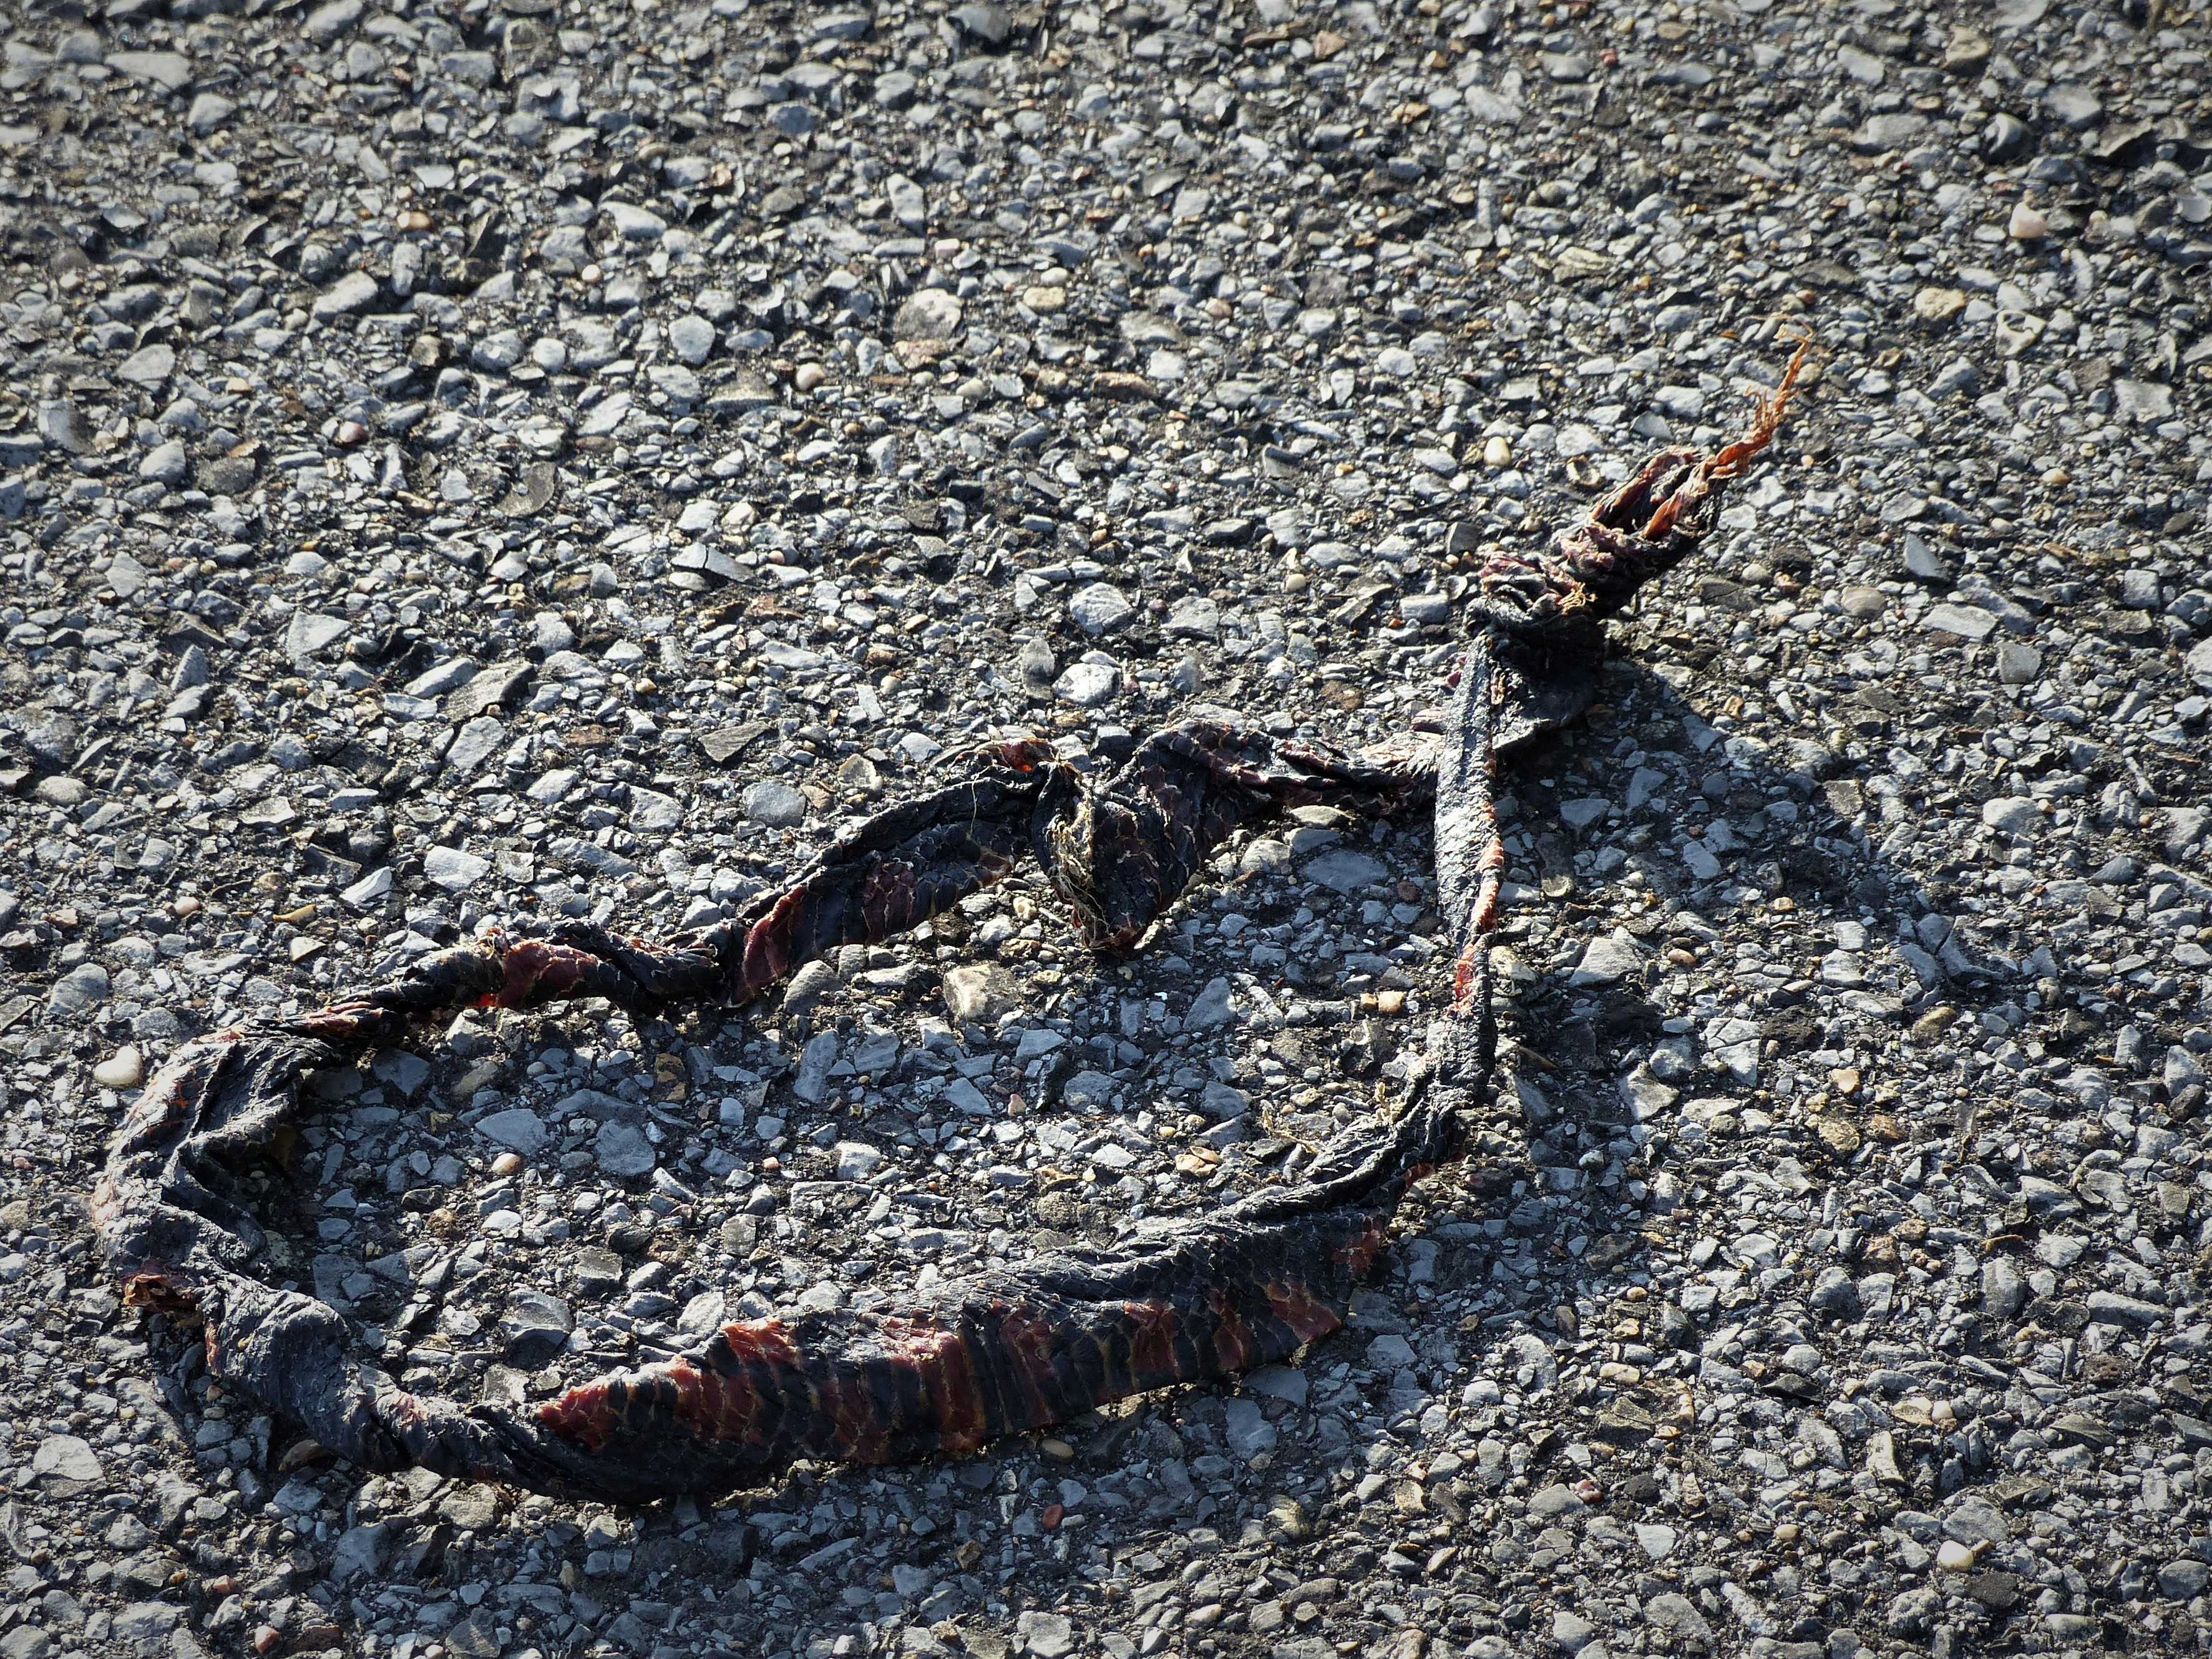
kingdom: Animalia
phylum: Chordata
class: Squamata
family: Colubridae
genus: Farancia
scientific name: Farancia abacura
